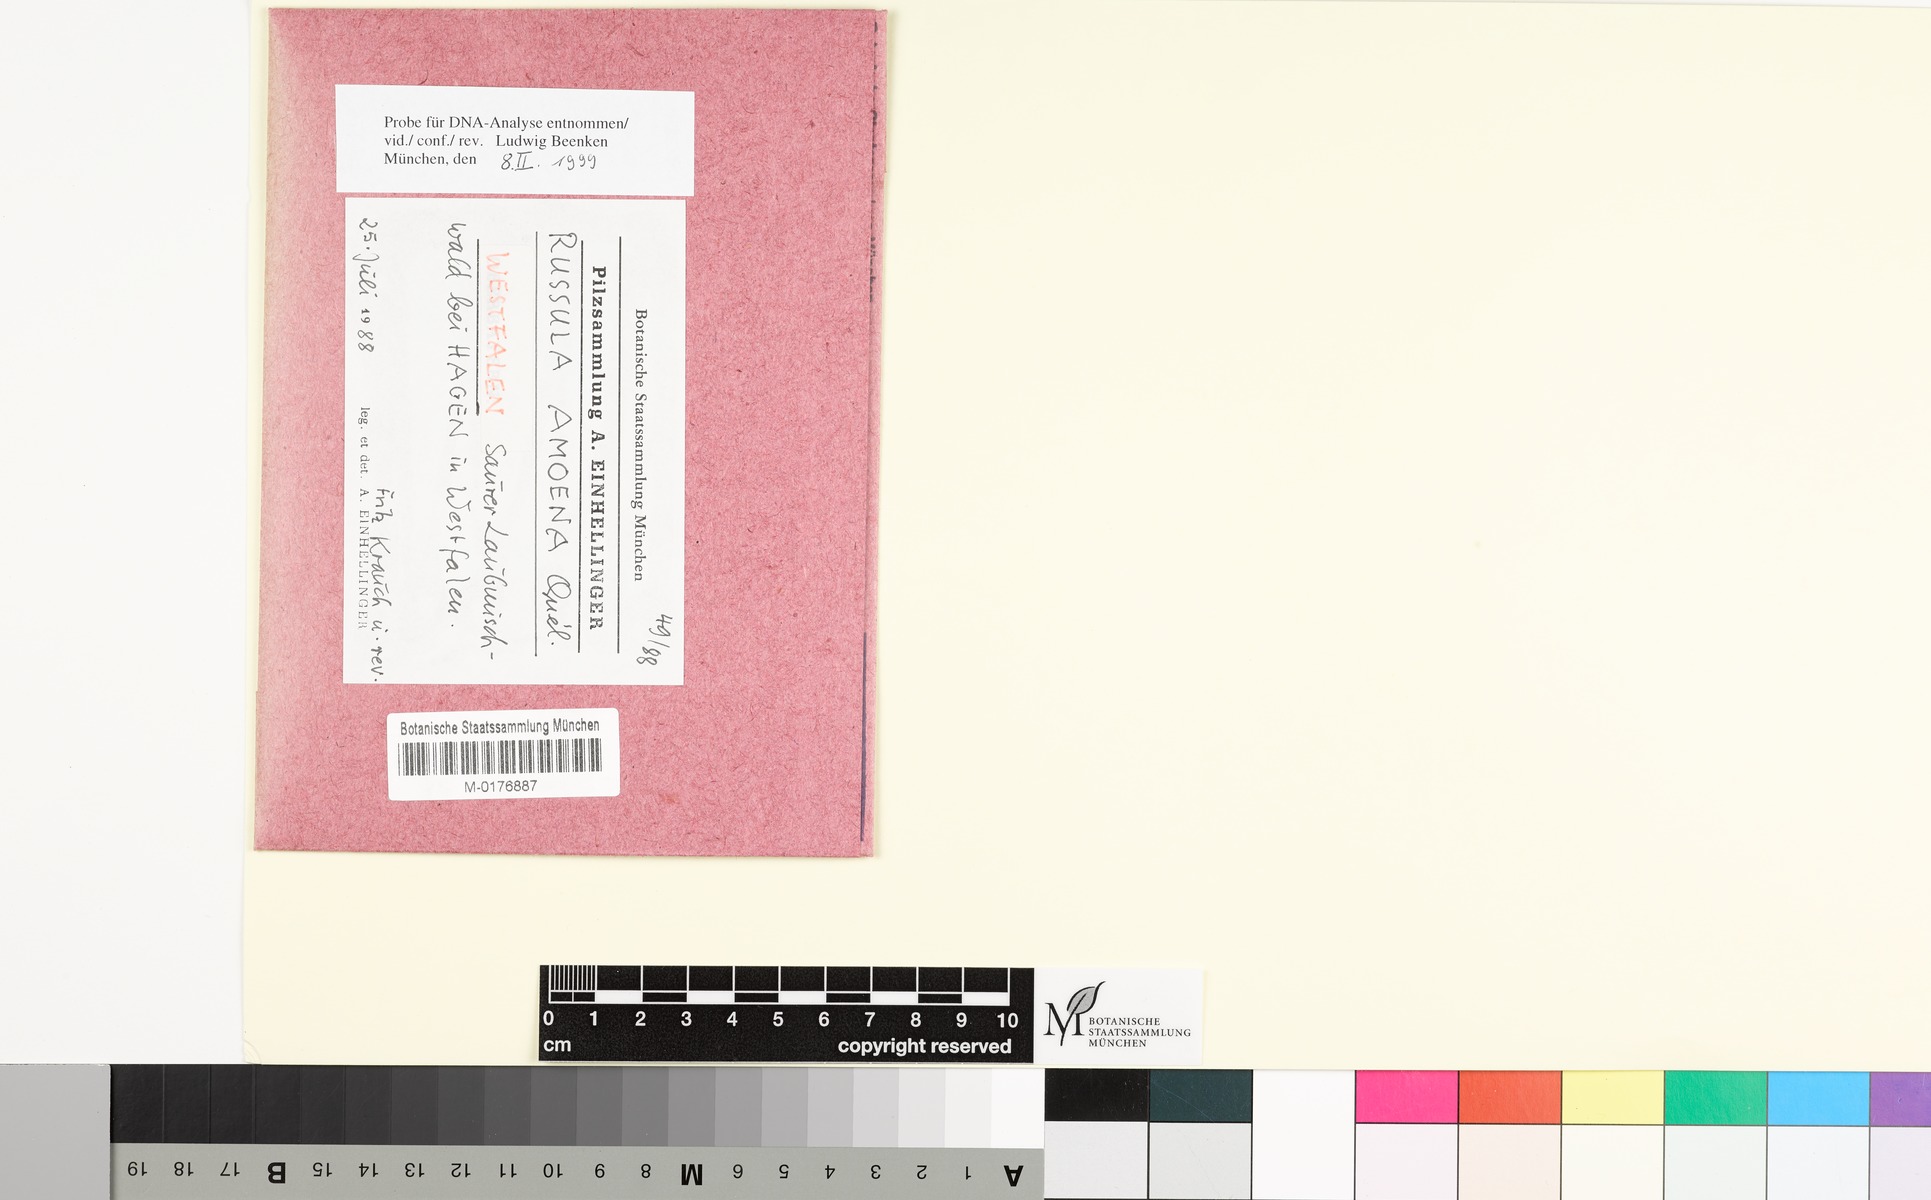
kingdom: Fungi
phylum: Basidiomycota
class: Agaricomycetes
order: Russulales
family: Russulaceae
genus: Russula
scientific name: Russula amoena
